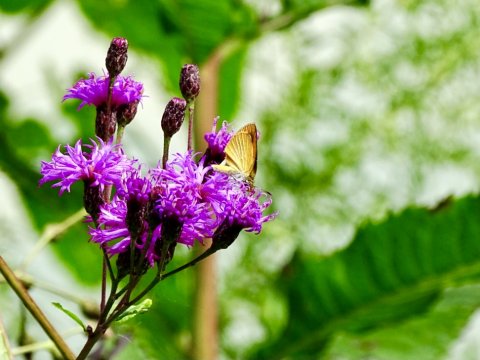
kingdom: Animalia
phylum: Arthropoda
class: Insecta
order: Lepidoptera
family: Hesperiidae
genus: Ancyloxypha
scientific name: Ancyloxypha numitor
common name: Least Skipper
